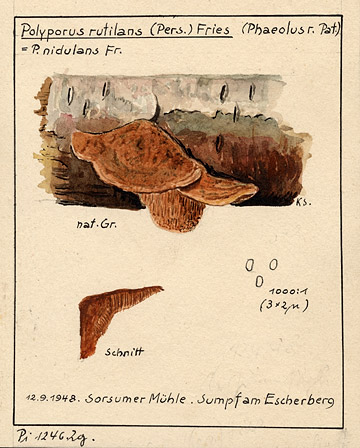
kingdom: Fungi
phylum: Basidiomycota
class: Agaricomycetes
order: Polyporales
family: Phanerochaetaceae
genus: Hapalopilus
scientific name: Hapalopilus rutilans
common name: Tender nesting polypore
